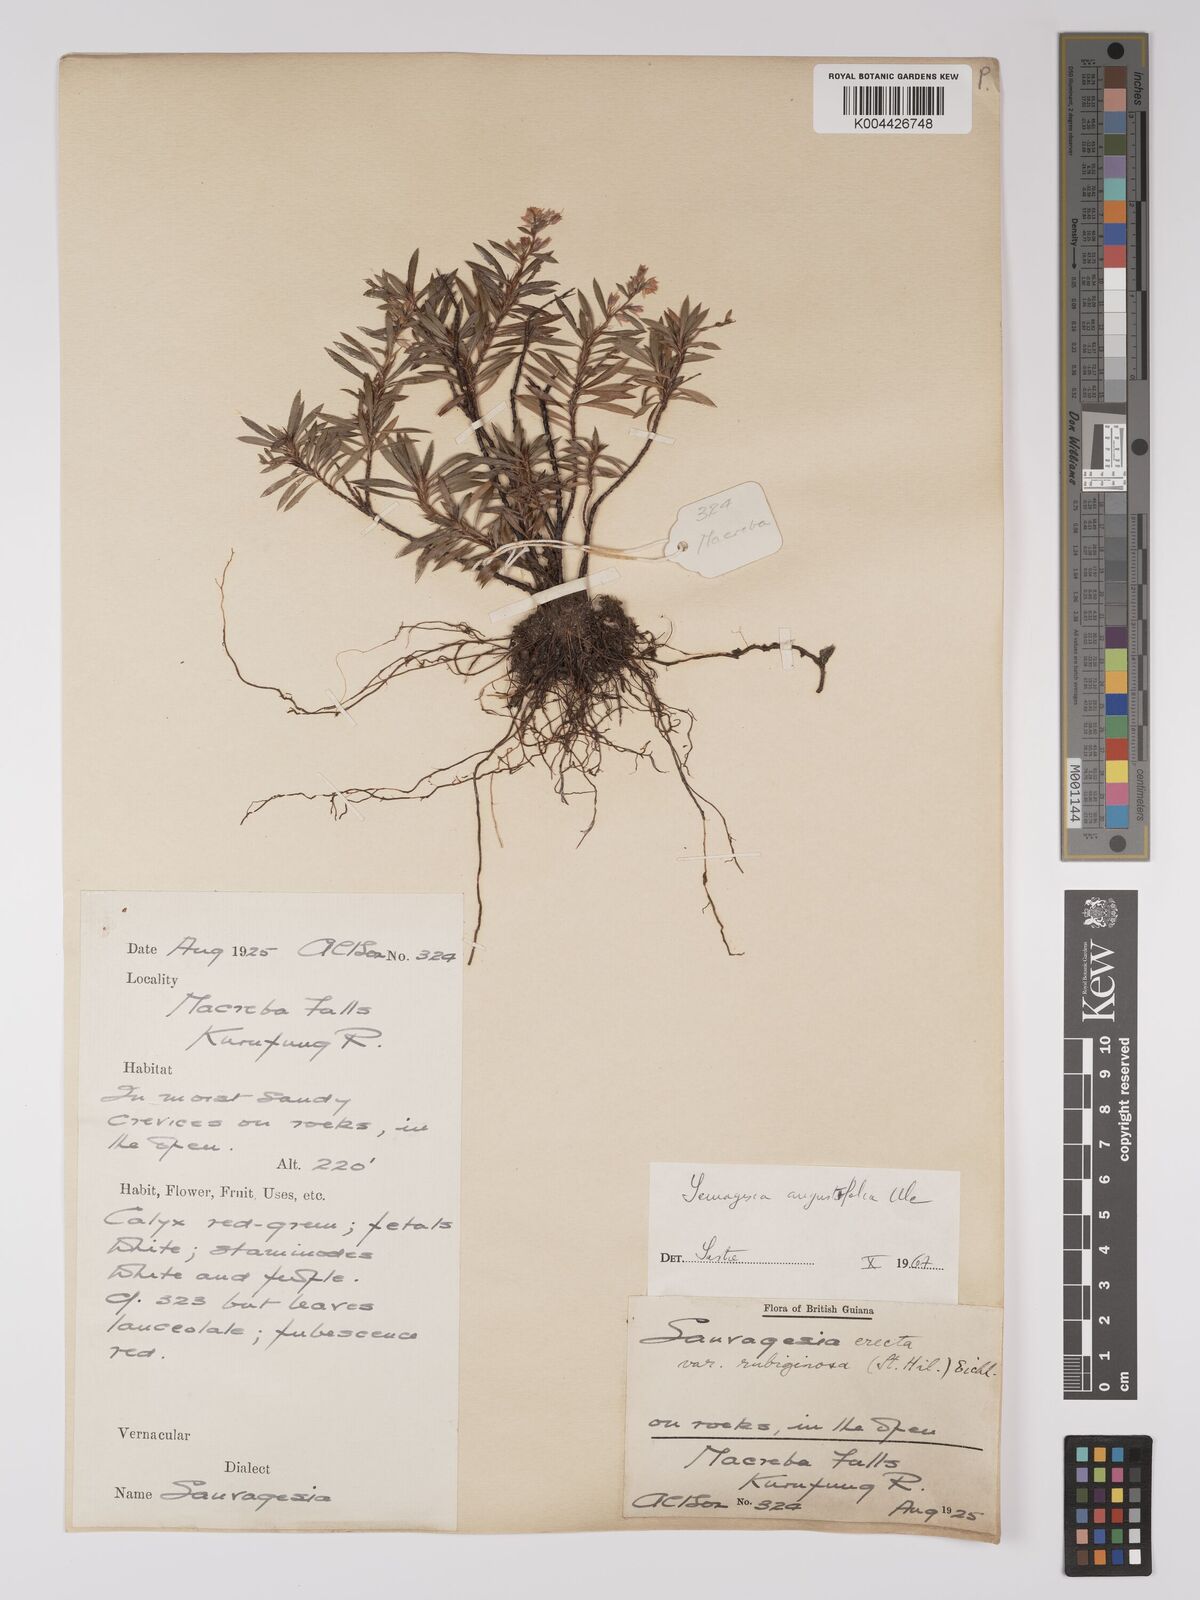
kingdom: Plantae
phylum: Tracheophyta
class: Magnoliopsida
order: Malpighiales
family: Ochnaceae
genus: Sauvagesia
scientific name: Sauvagesia angustifolia
